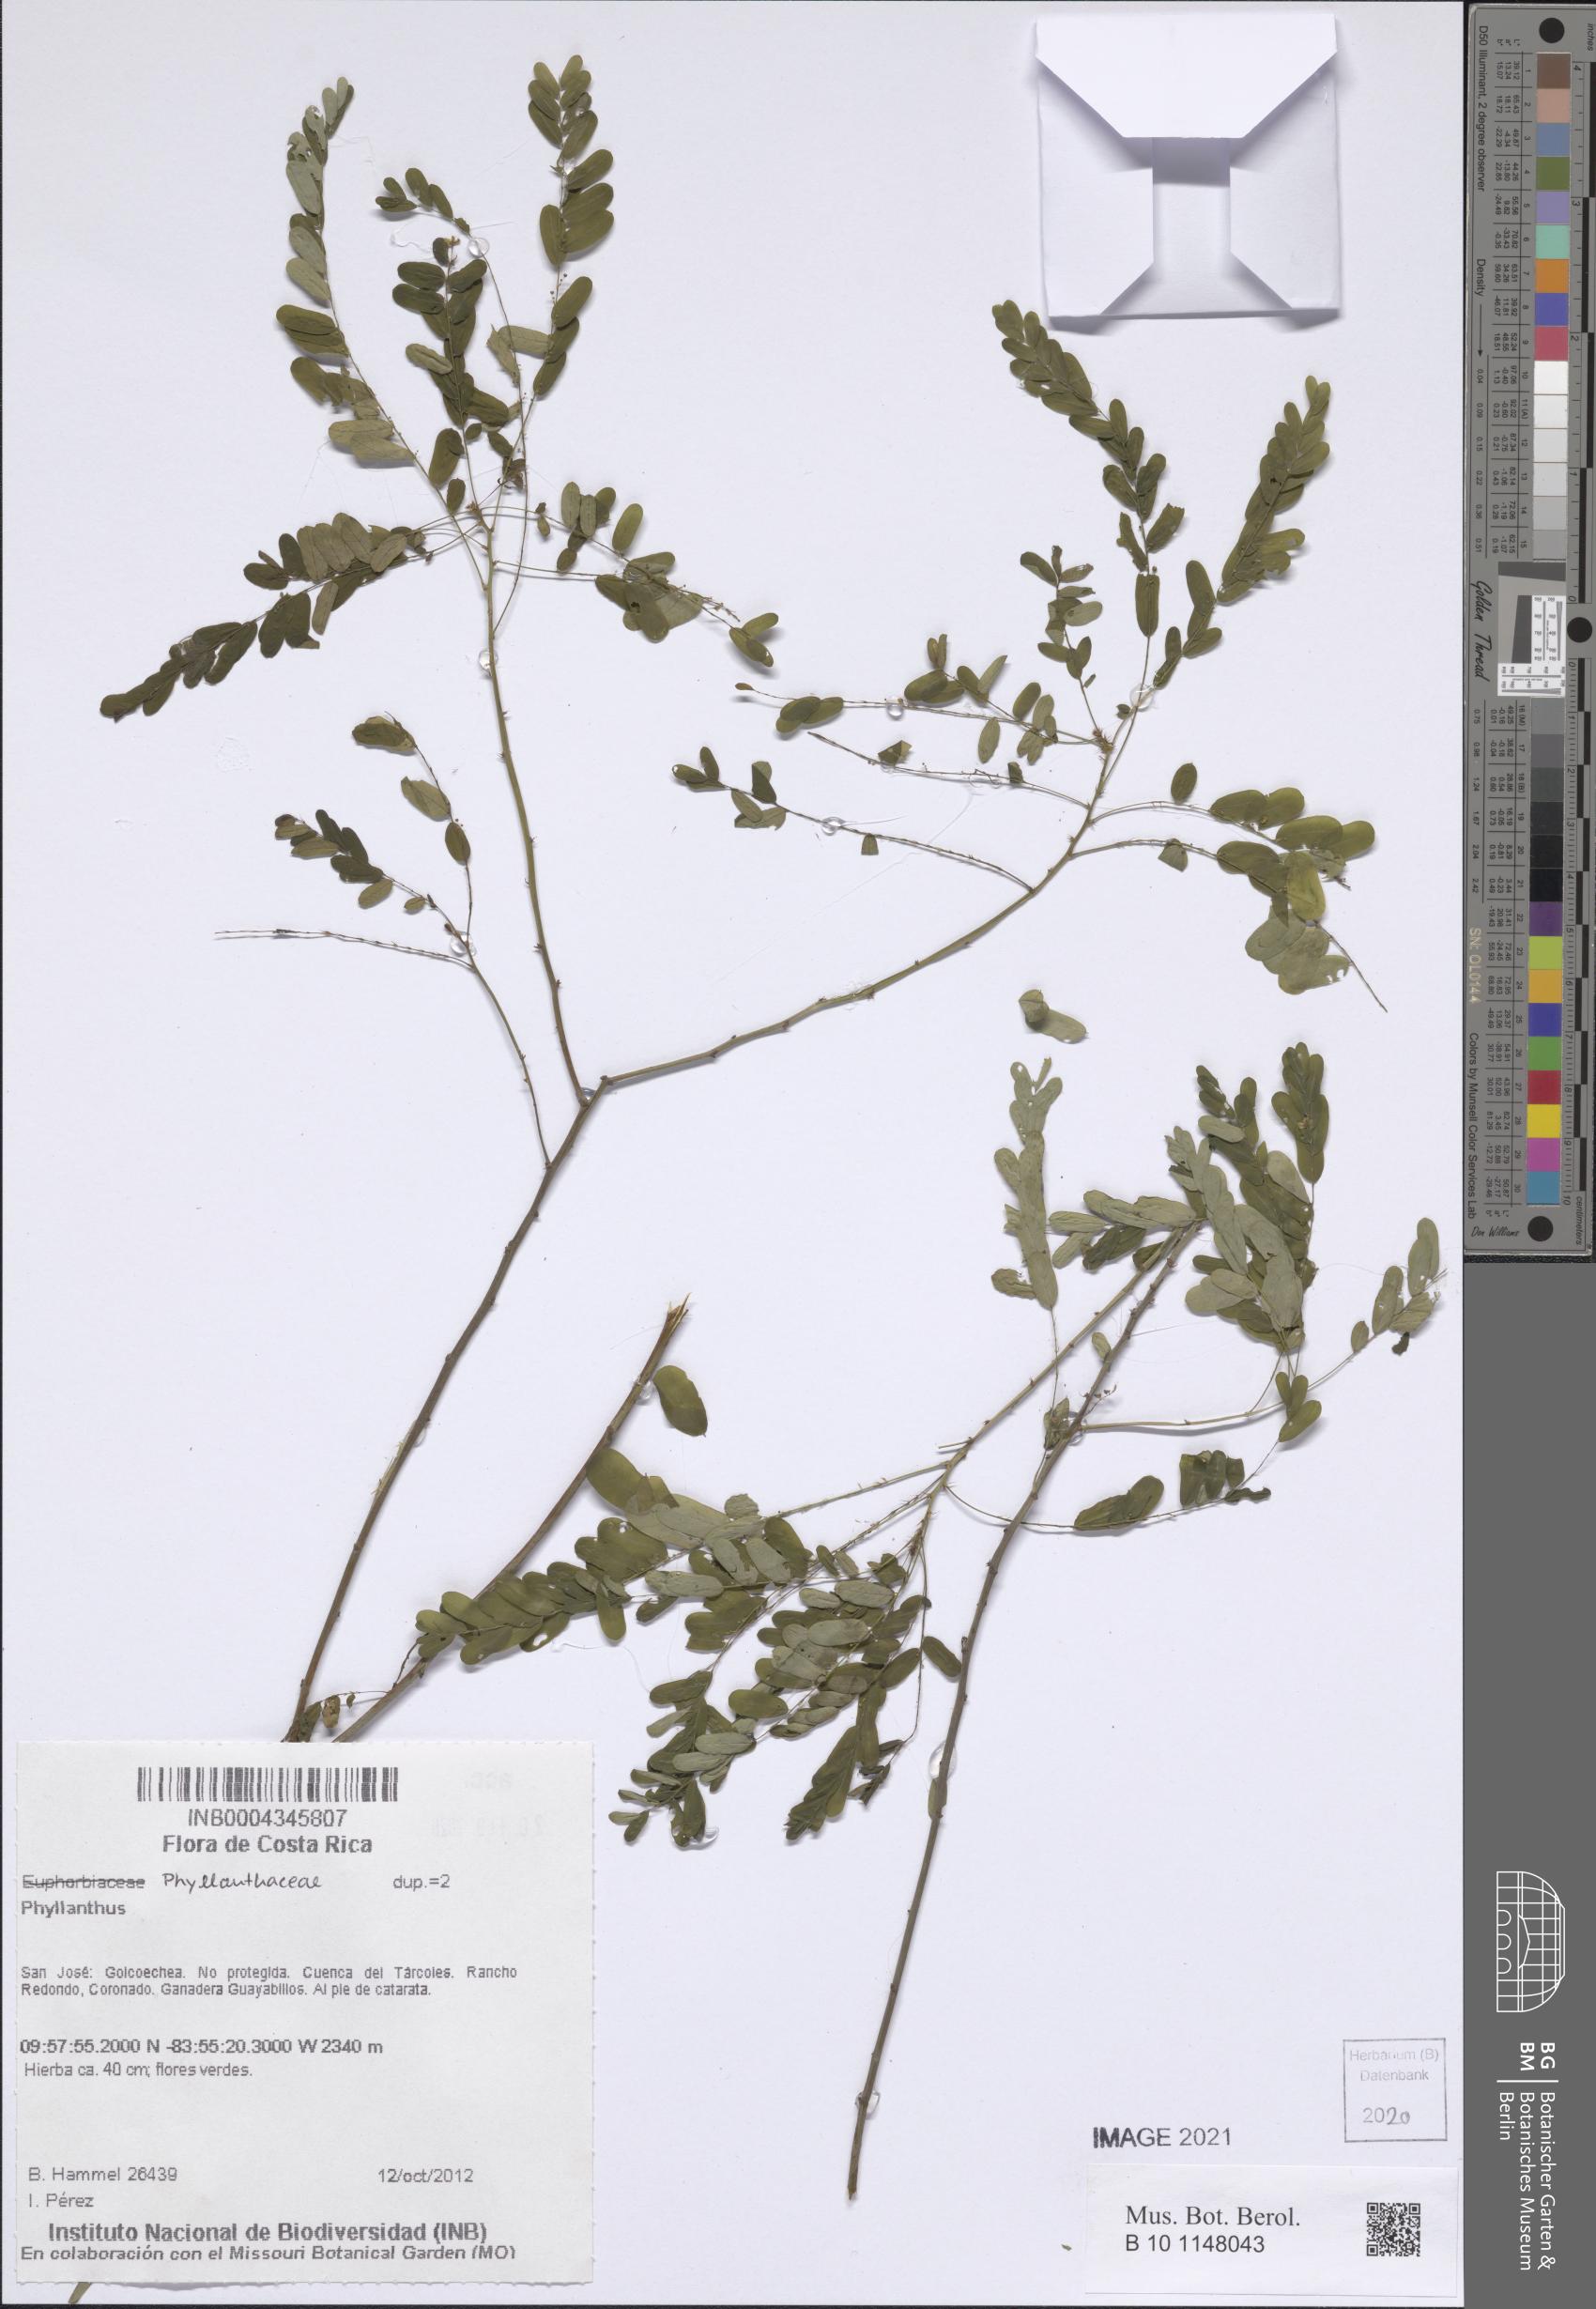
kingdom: Plantae
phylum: Tracheophyta
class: Magnoliopsida
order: Malpighiales
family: Phyllanthaceae
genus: Phyllanthus
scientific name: Phyllanthus
